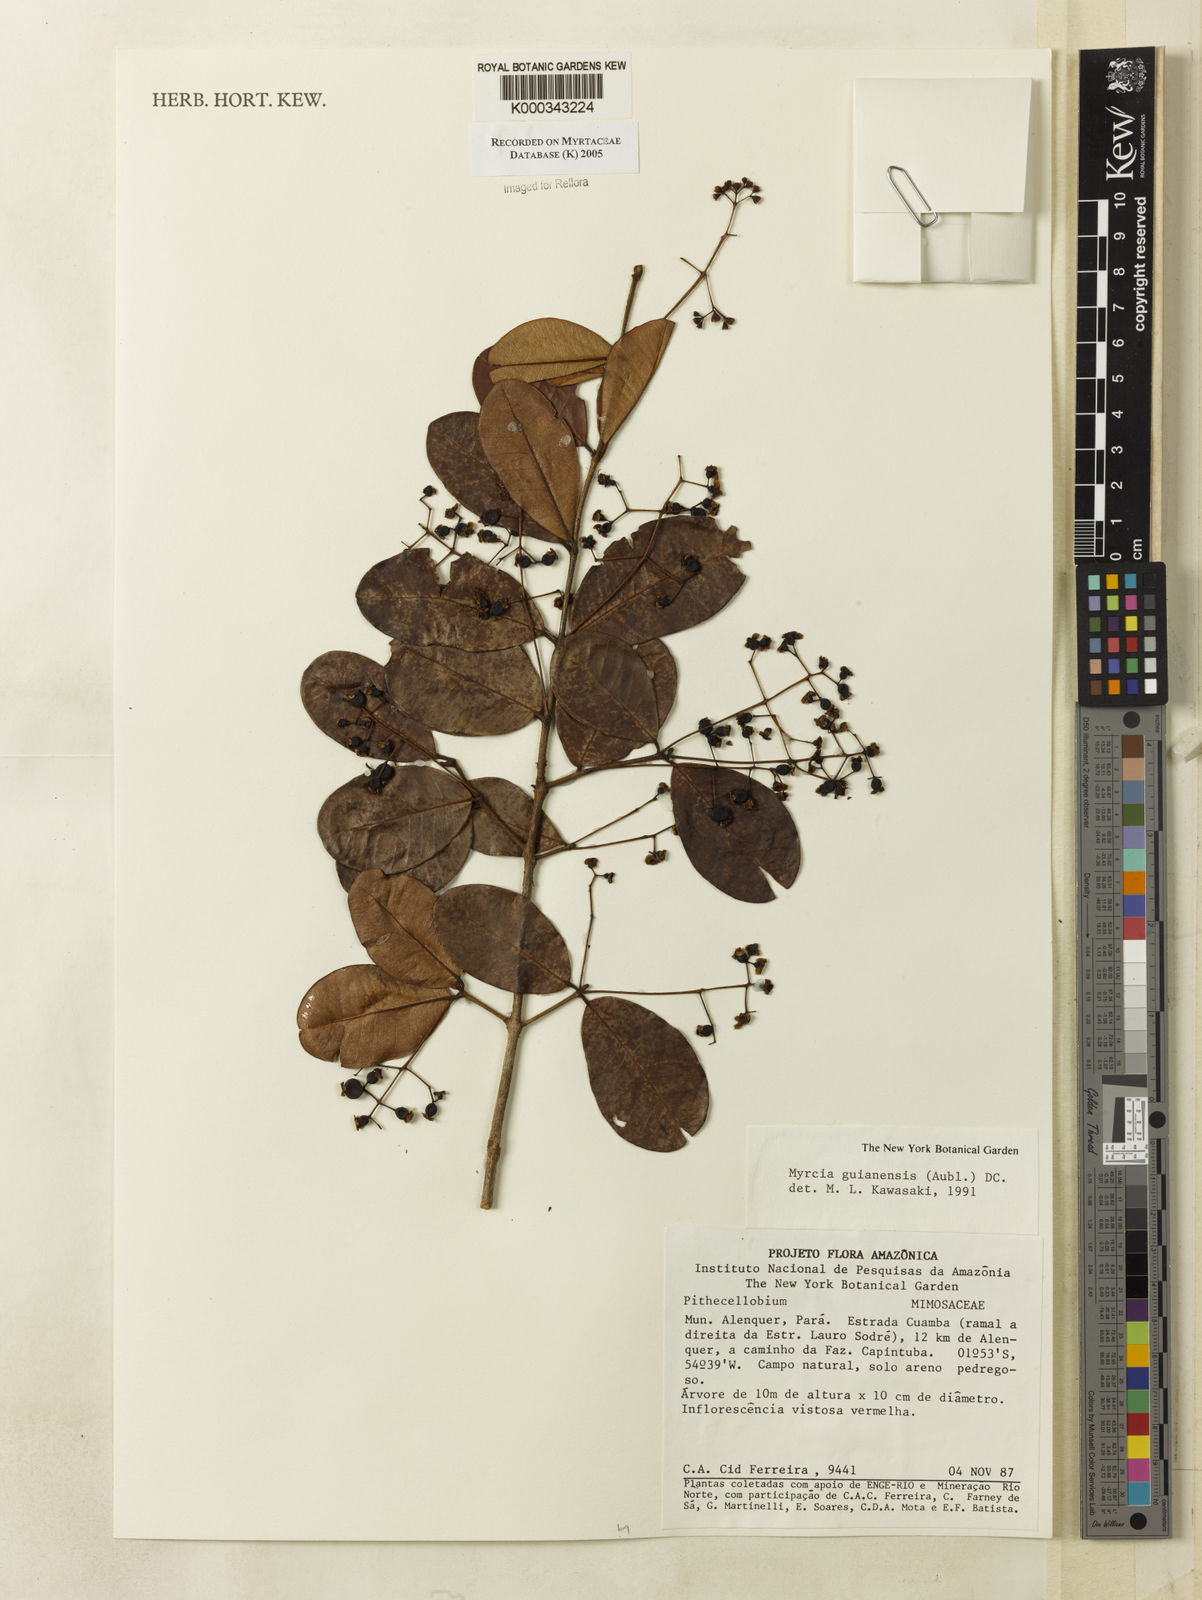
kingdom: Plantae
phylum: Tracheophyta
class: Magnoliopsida
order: Myrtales
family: Myrtaceae
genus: Myrcia
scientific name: Myrcia guianensis
